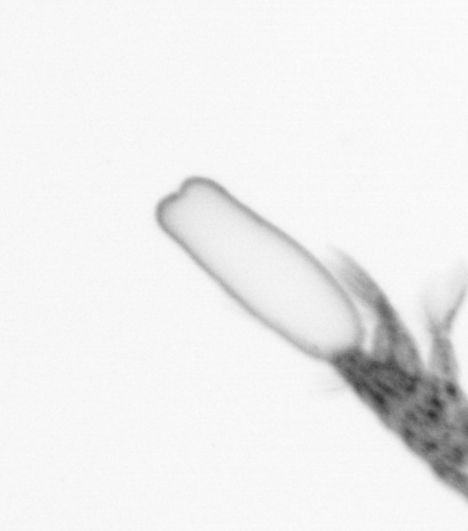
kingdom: Animalia
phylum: Arthropoda
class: Copepoda
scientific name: Copepoda
